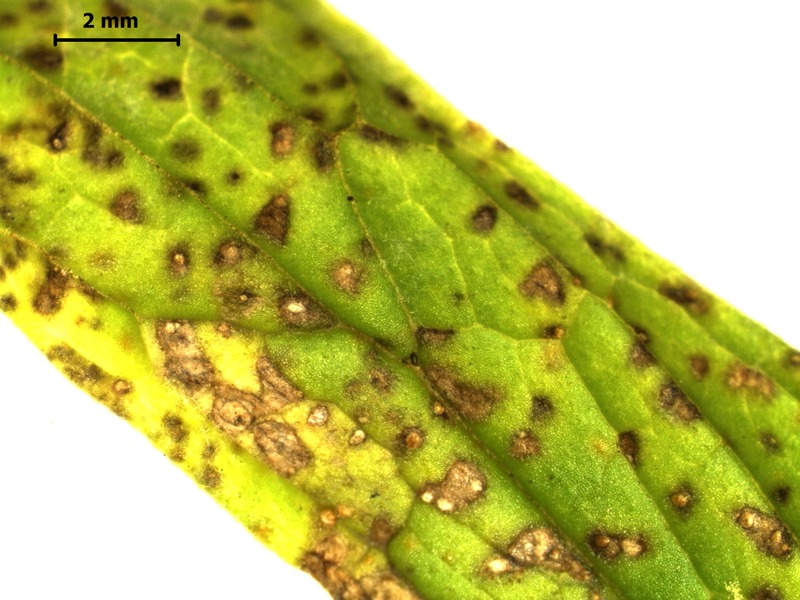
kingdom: Fungi
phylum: Basidiomycota
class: Pucciniomycetes
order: Pucciniales
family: Pucciniaceae
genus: Uromyces
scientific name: Uromyces valerianae
